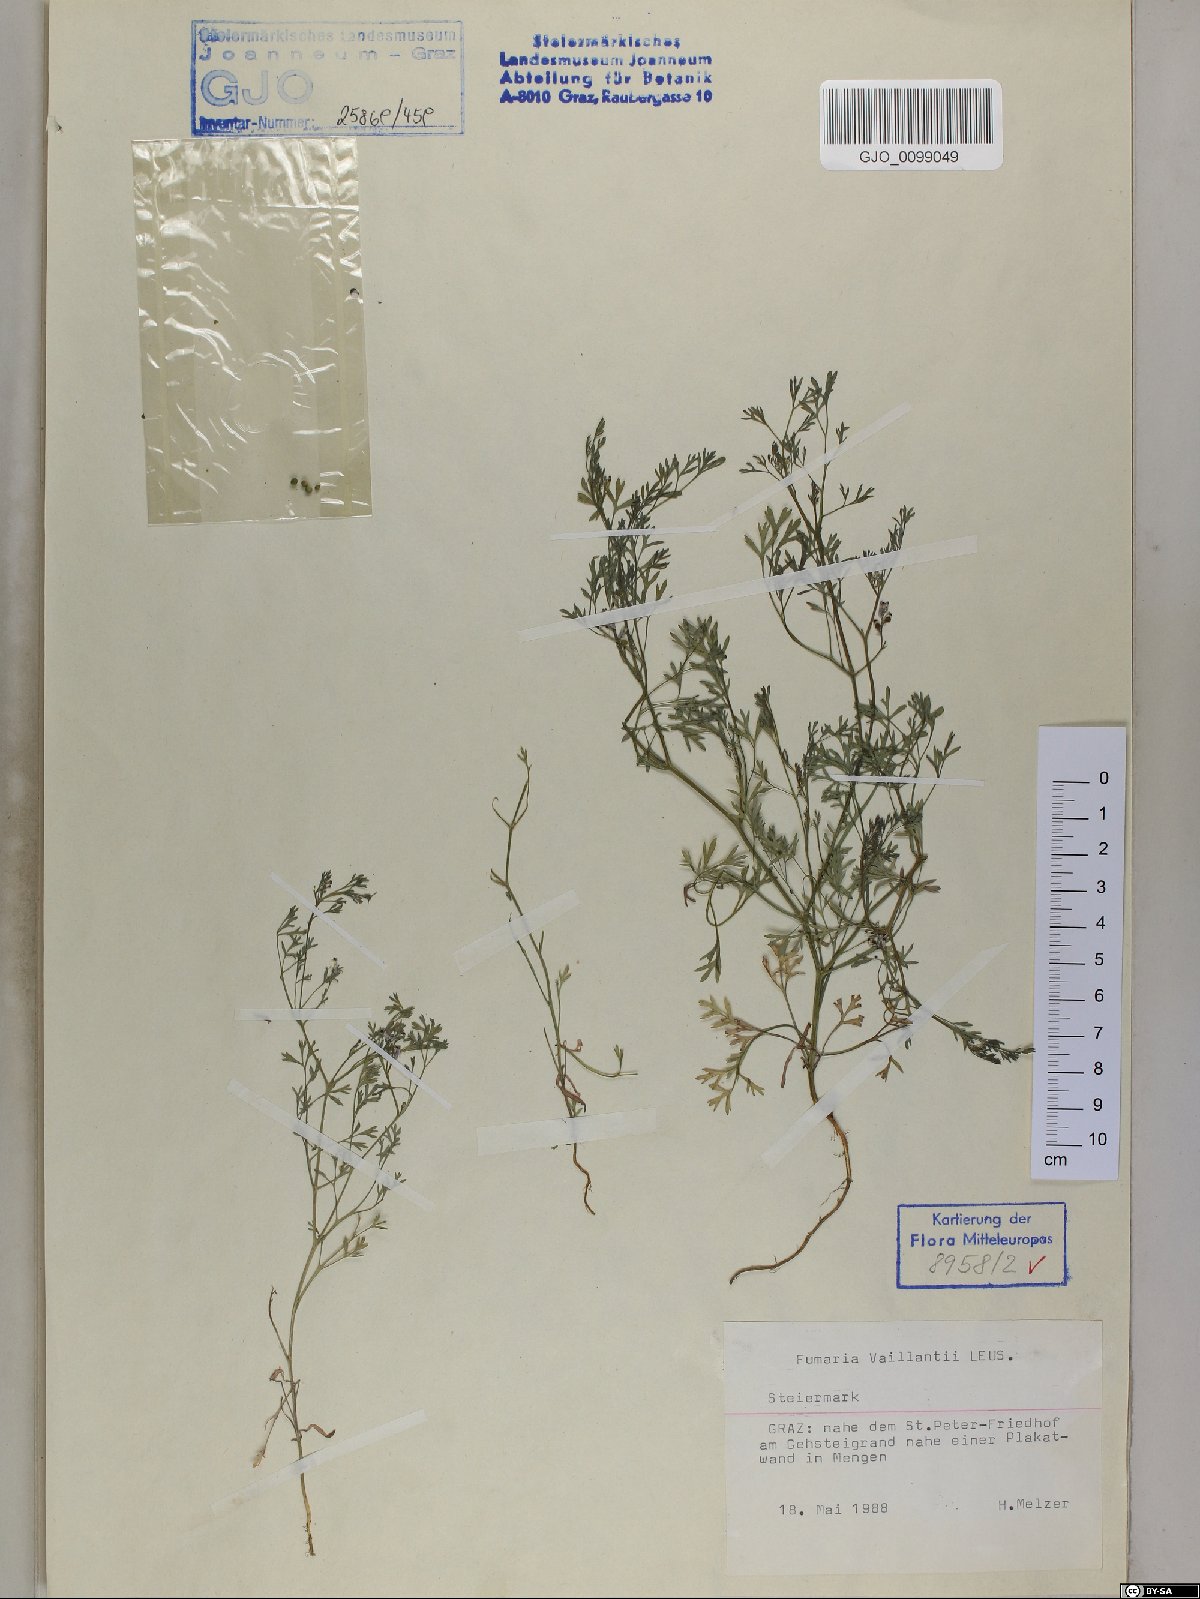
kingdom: Plantae
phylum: Tracheophyta
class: Magnoliopsida
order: Ranunculales
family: Papaveraceae
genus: Fumaria
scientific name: Fumaria vaillantii
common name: Few-flowered fumitory
